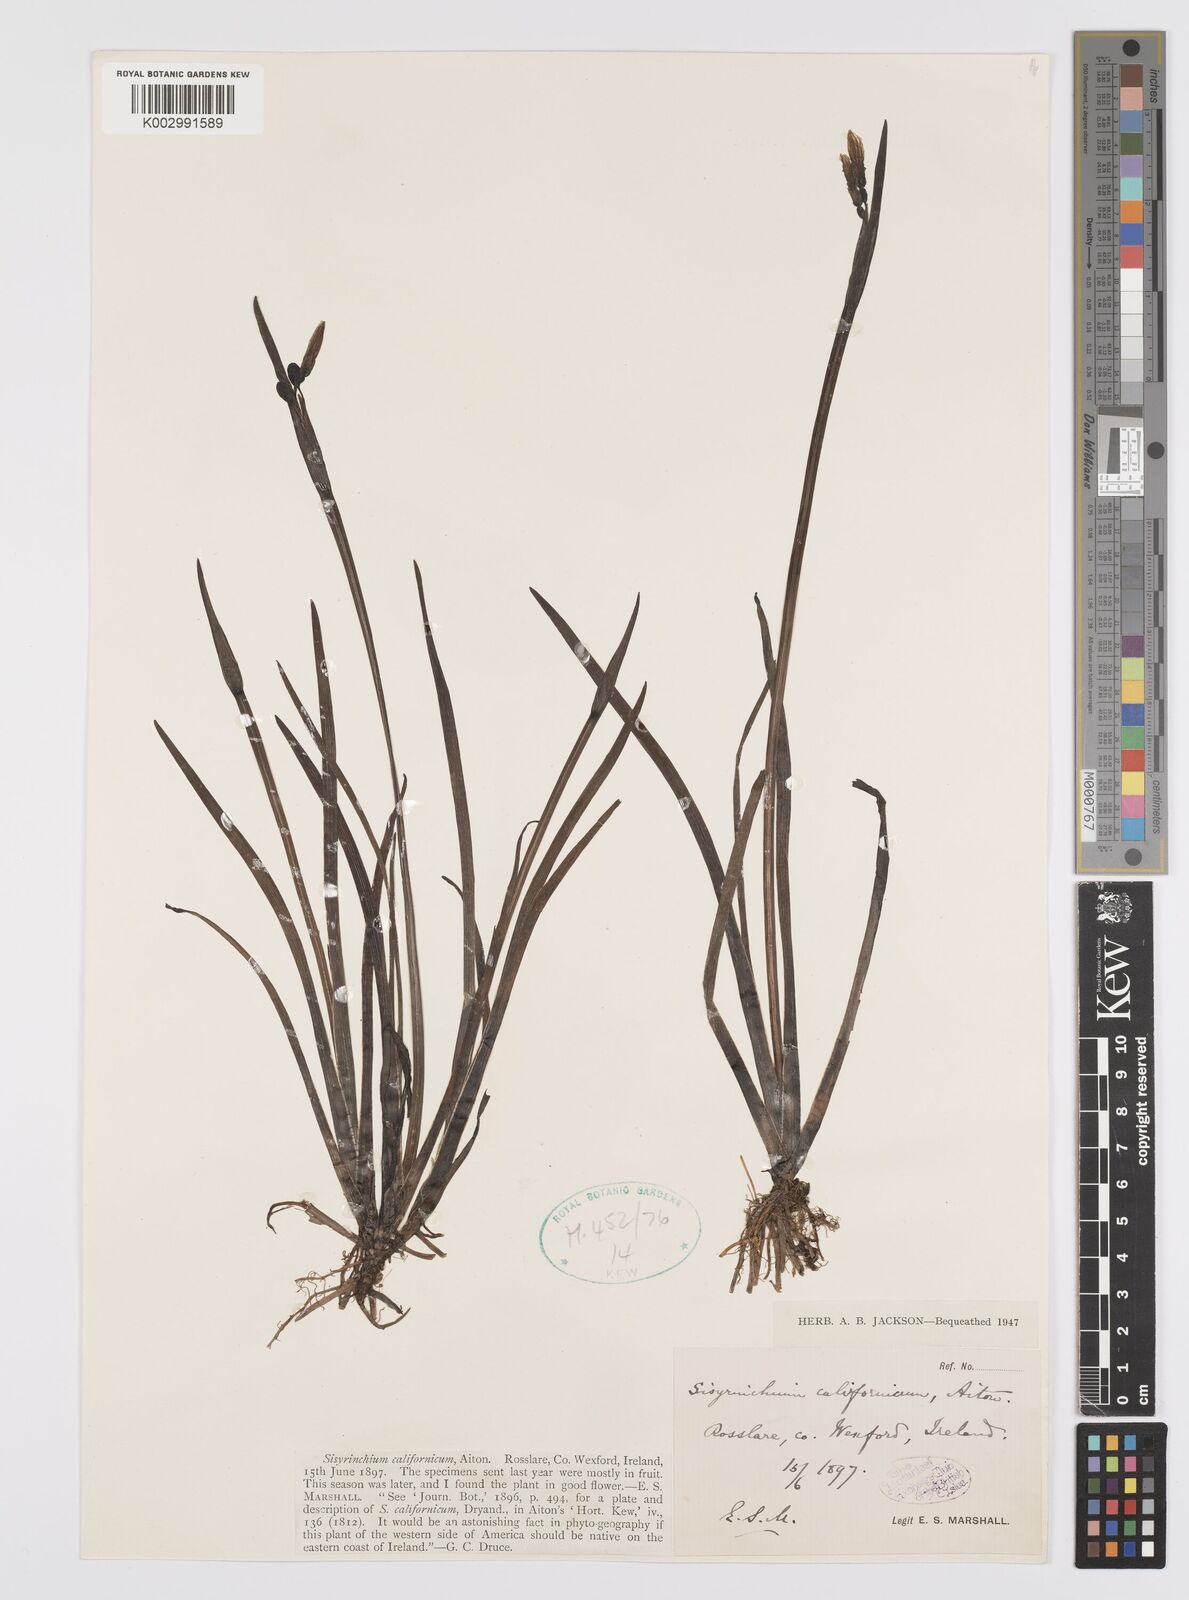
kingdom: Plantae
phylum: Tracheophyta
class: Liliopsida
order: Asparagales
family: Iridaceae
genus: Sisyrinchium
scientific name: Sisyrinchium californicum
